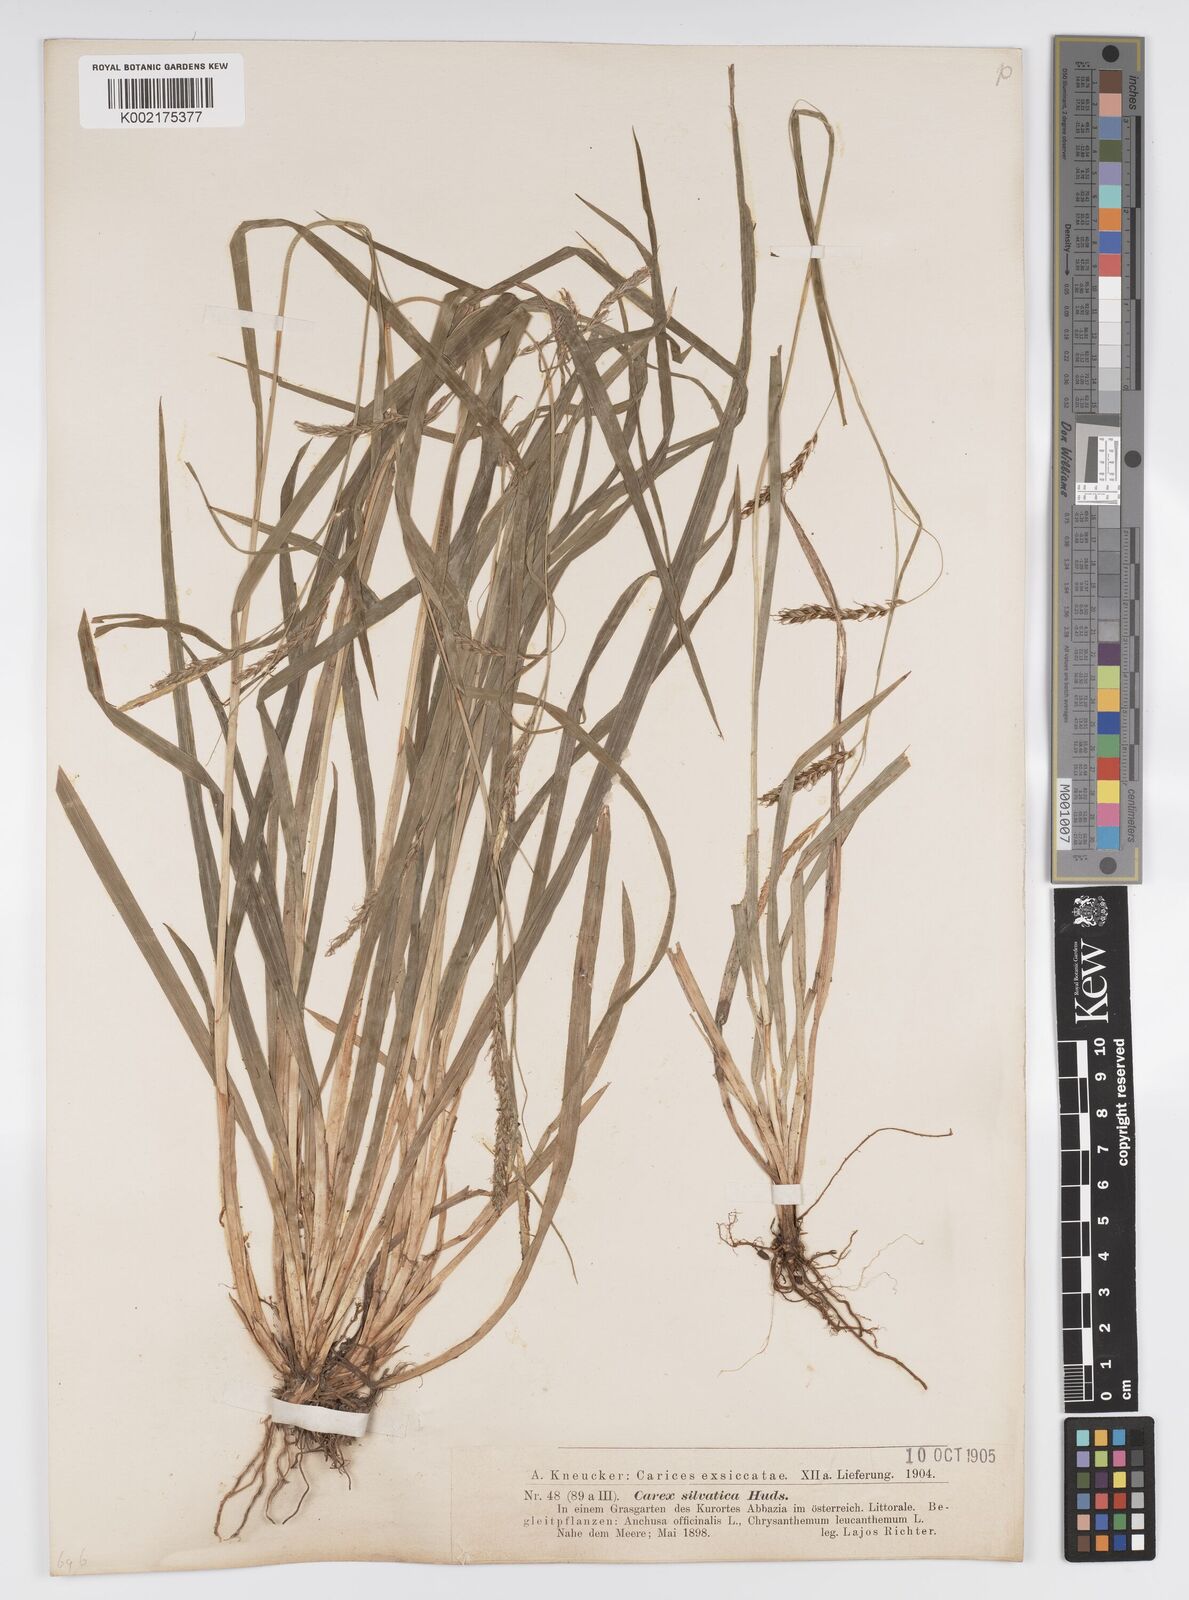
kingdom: Plantae
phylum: Tracheophyta
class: Liliopsida
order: Poales
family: Cyperaceae
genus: Carex
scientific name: Carex sylvatica
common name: Wood-sedge
